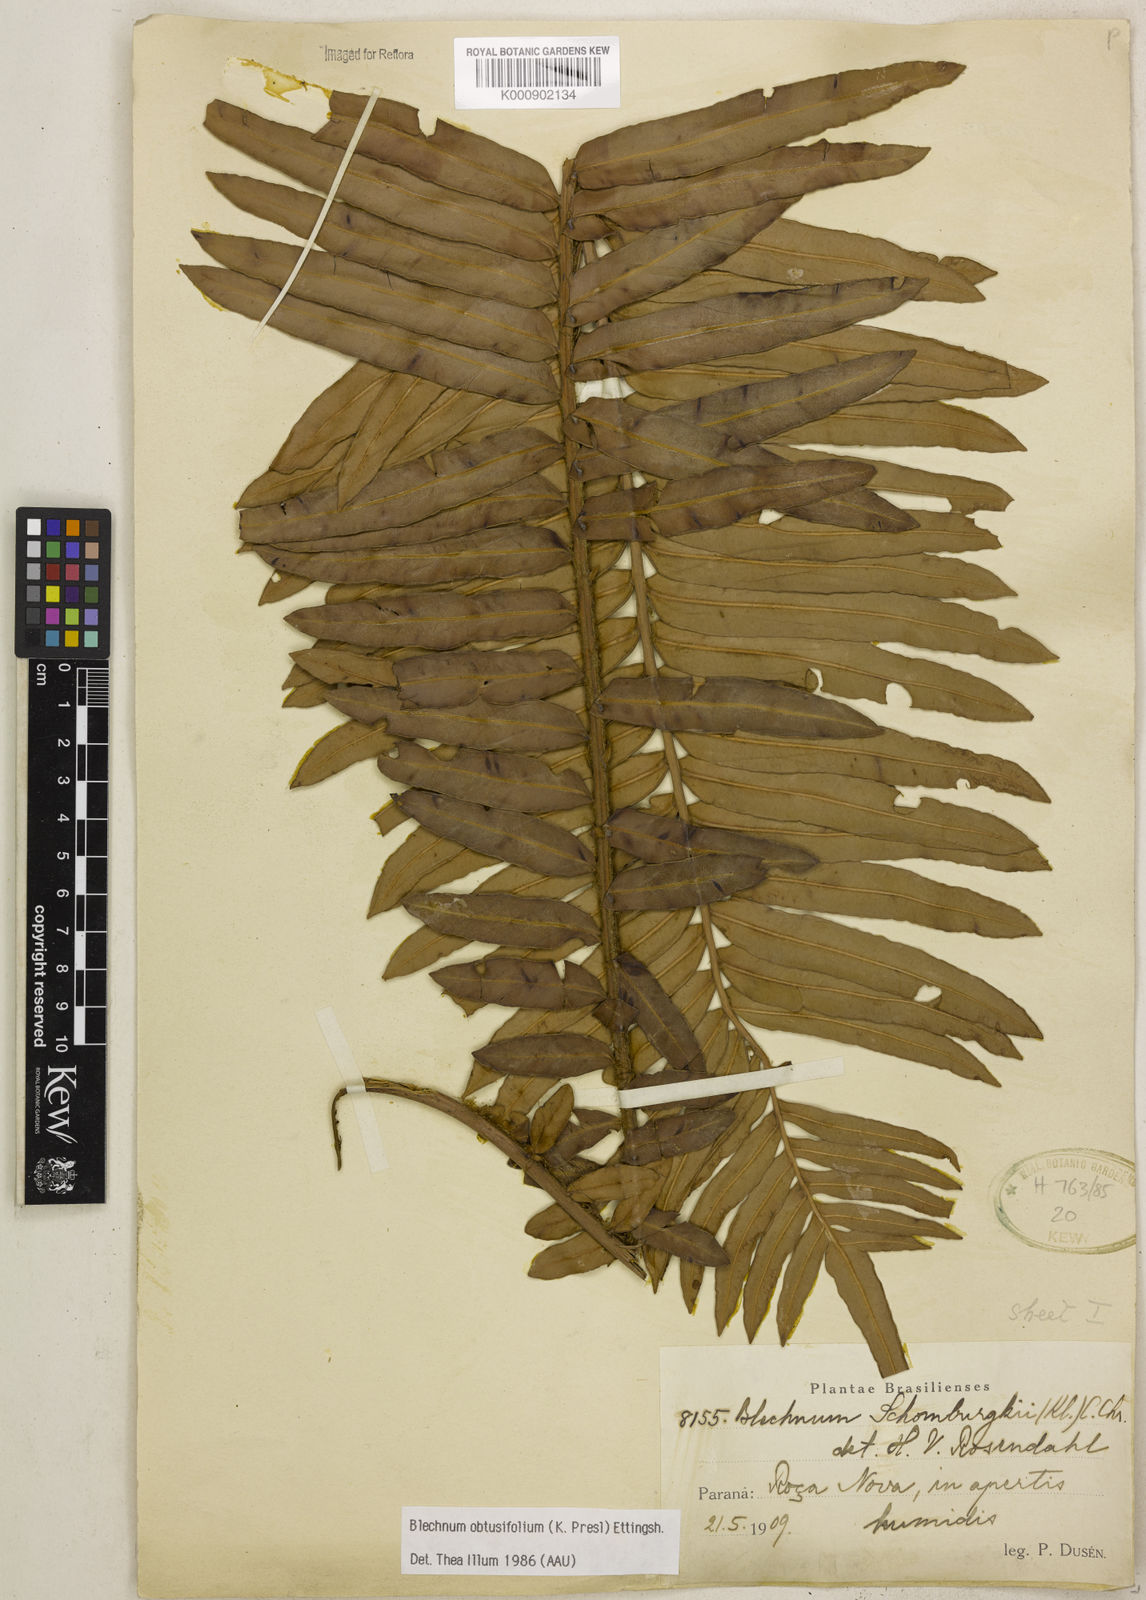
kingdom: Plantae
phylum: Tracheophyta
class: Polypodiopsida
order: Polypodiales
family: Blechnaceae
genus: Lomariocycas
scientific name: Lomariocycas obtusifolia
